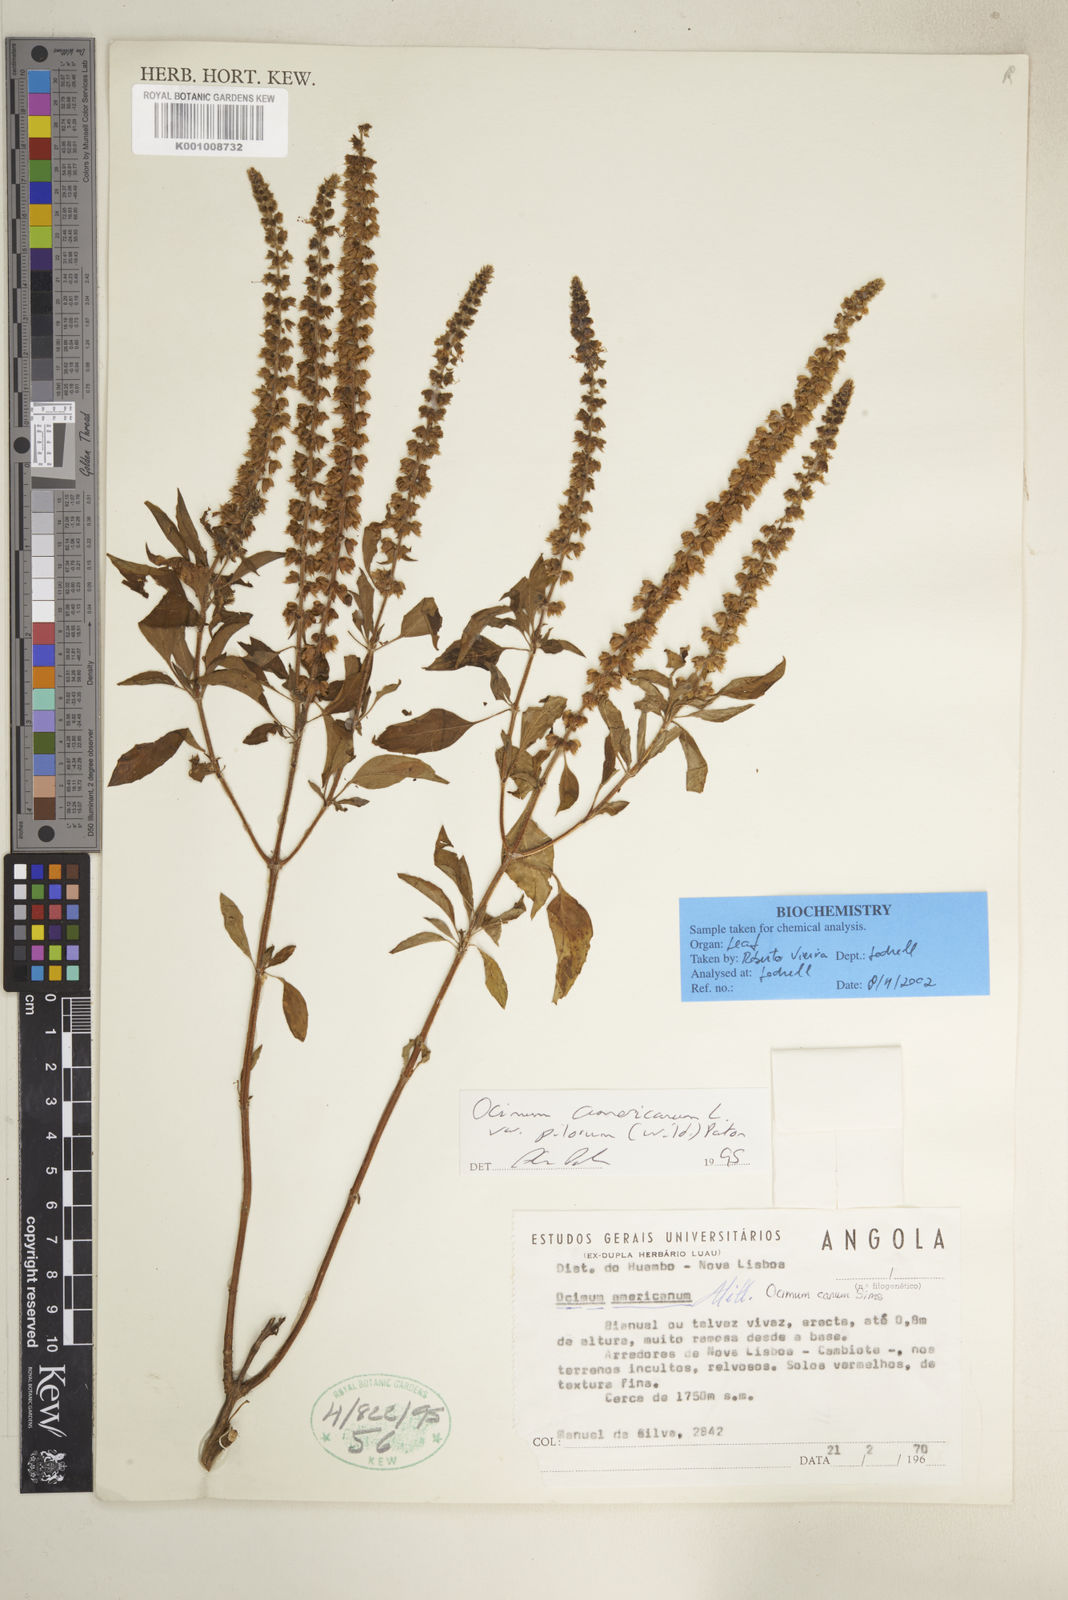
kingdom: Plantae
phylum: Tracheophyta
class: Magnoliopsida
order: Lamiales
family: Lamiaceae
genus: Ocimum
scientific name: Ocimum africanum
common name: Hoary basil
